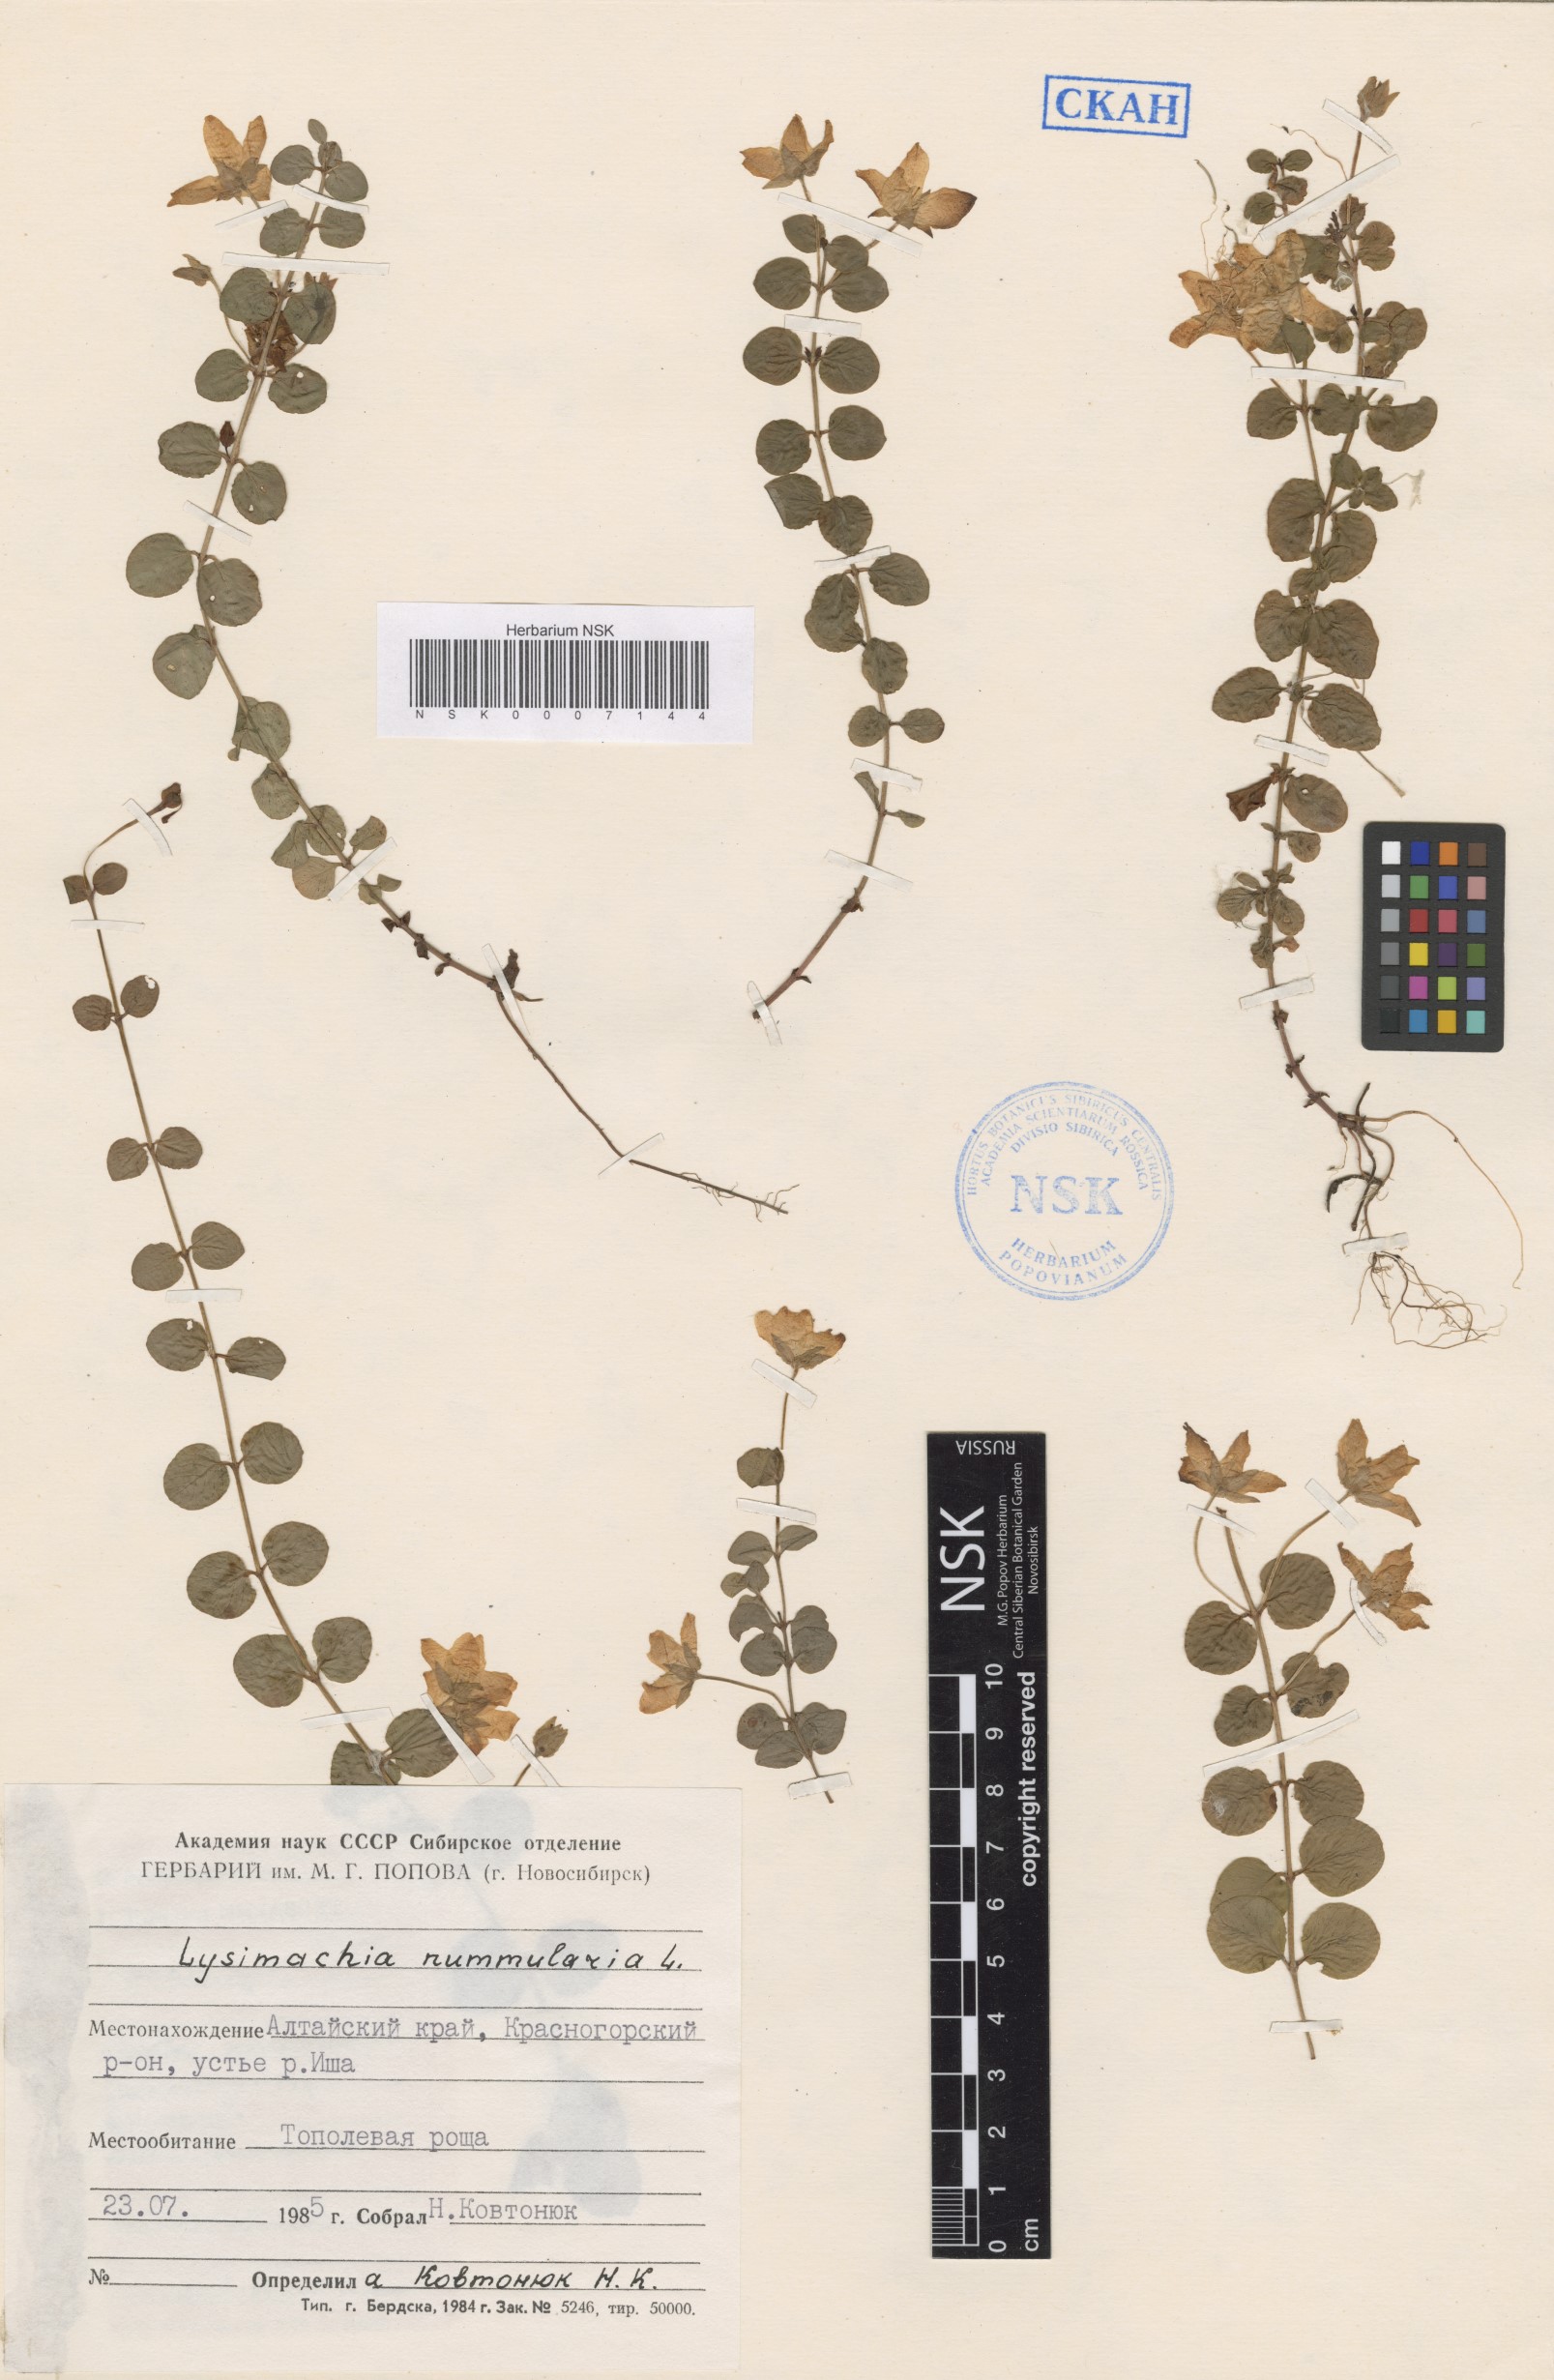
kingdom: Plantae
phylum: Tracheophyta
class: Magnoliopsida
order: Ericales
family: Primulaceae
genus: Lysimachia
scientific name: Lysimachia nummularia
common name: Moneywort
